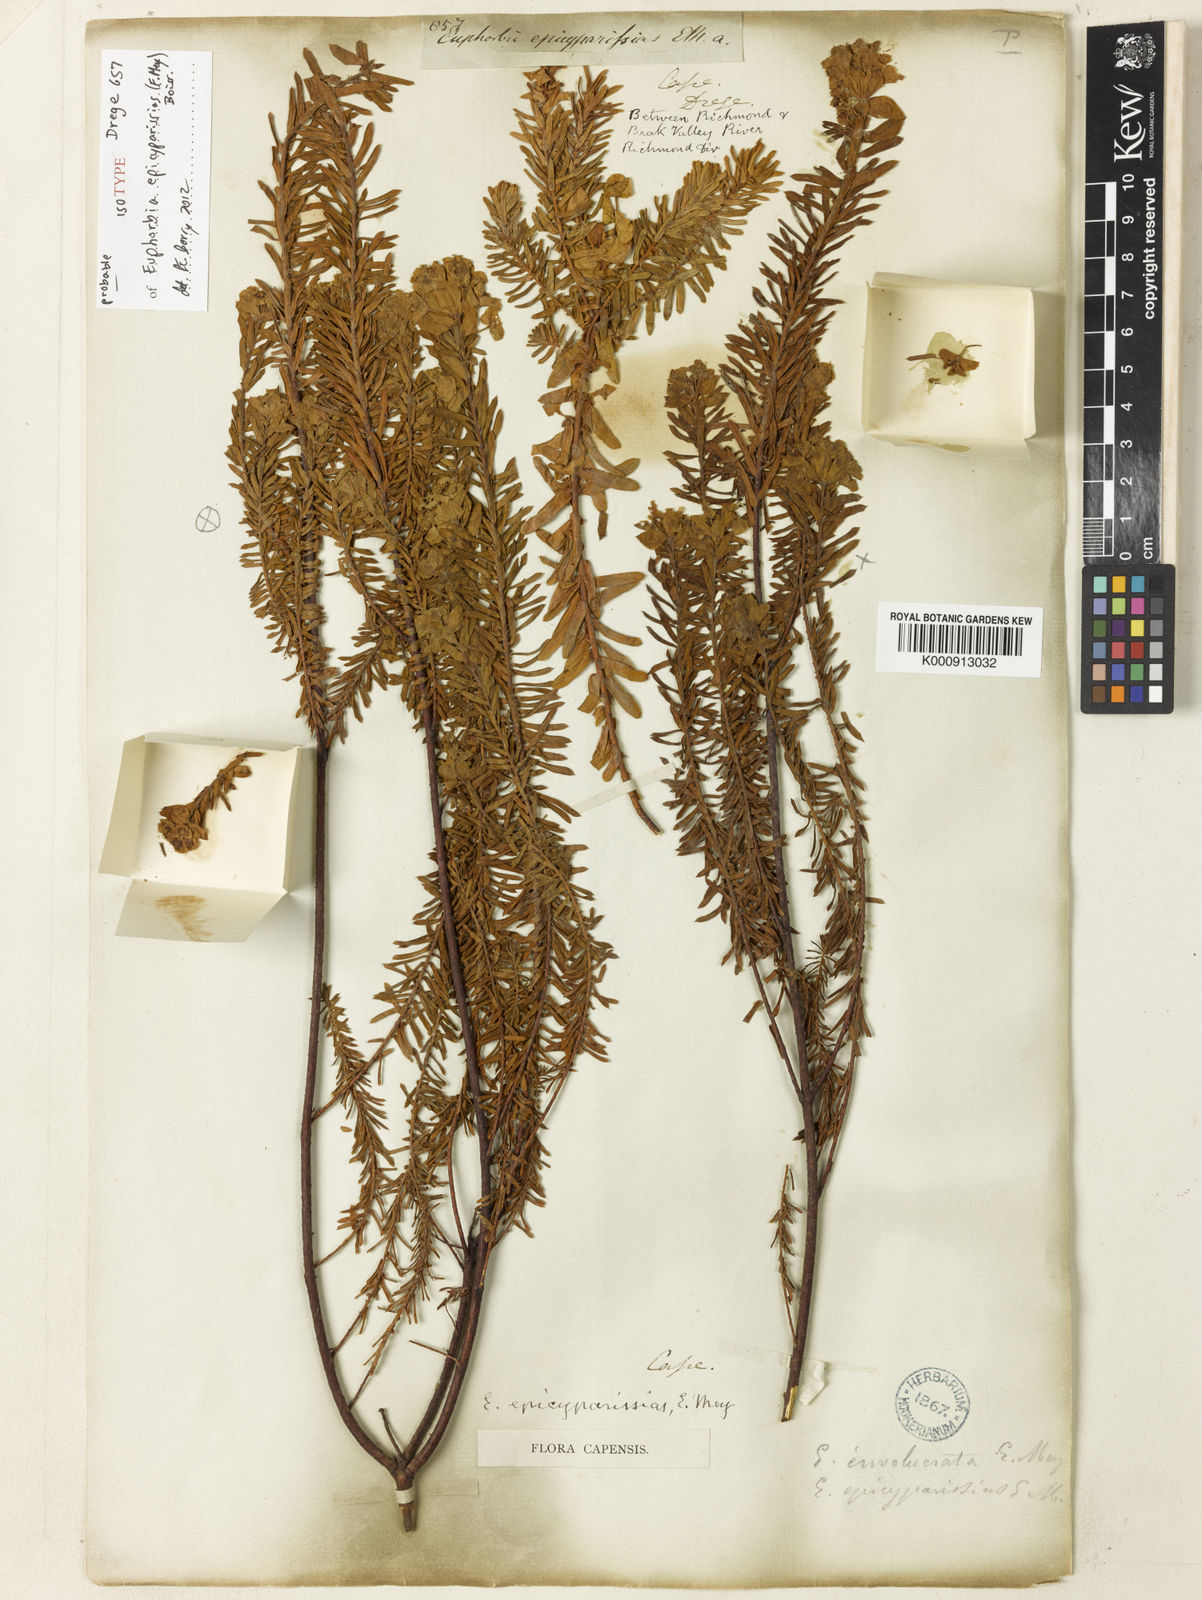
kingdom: Plantae
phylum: Tracheophyta
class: Magnoliopsida
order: Malpighiales
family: Euphorbiaceae
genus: Euphorbia
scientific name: Euphorbia natalensis
